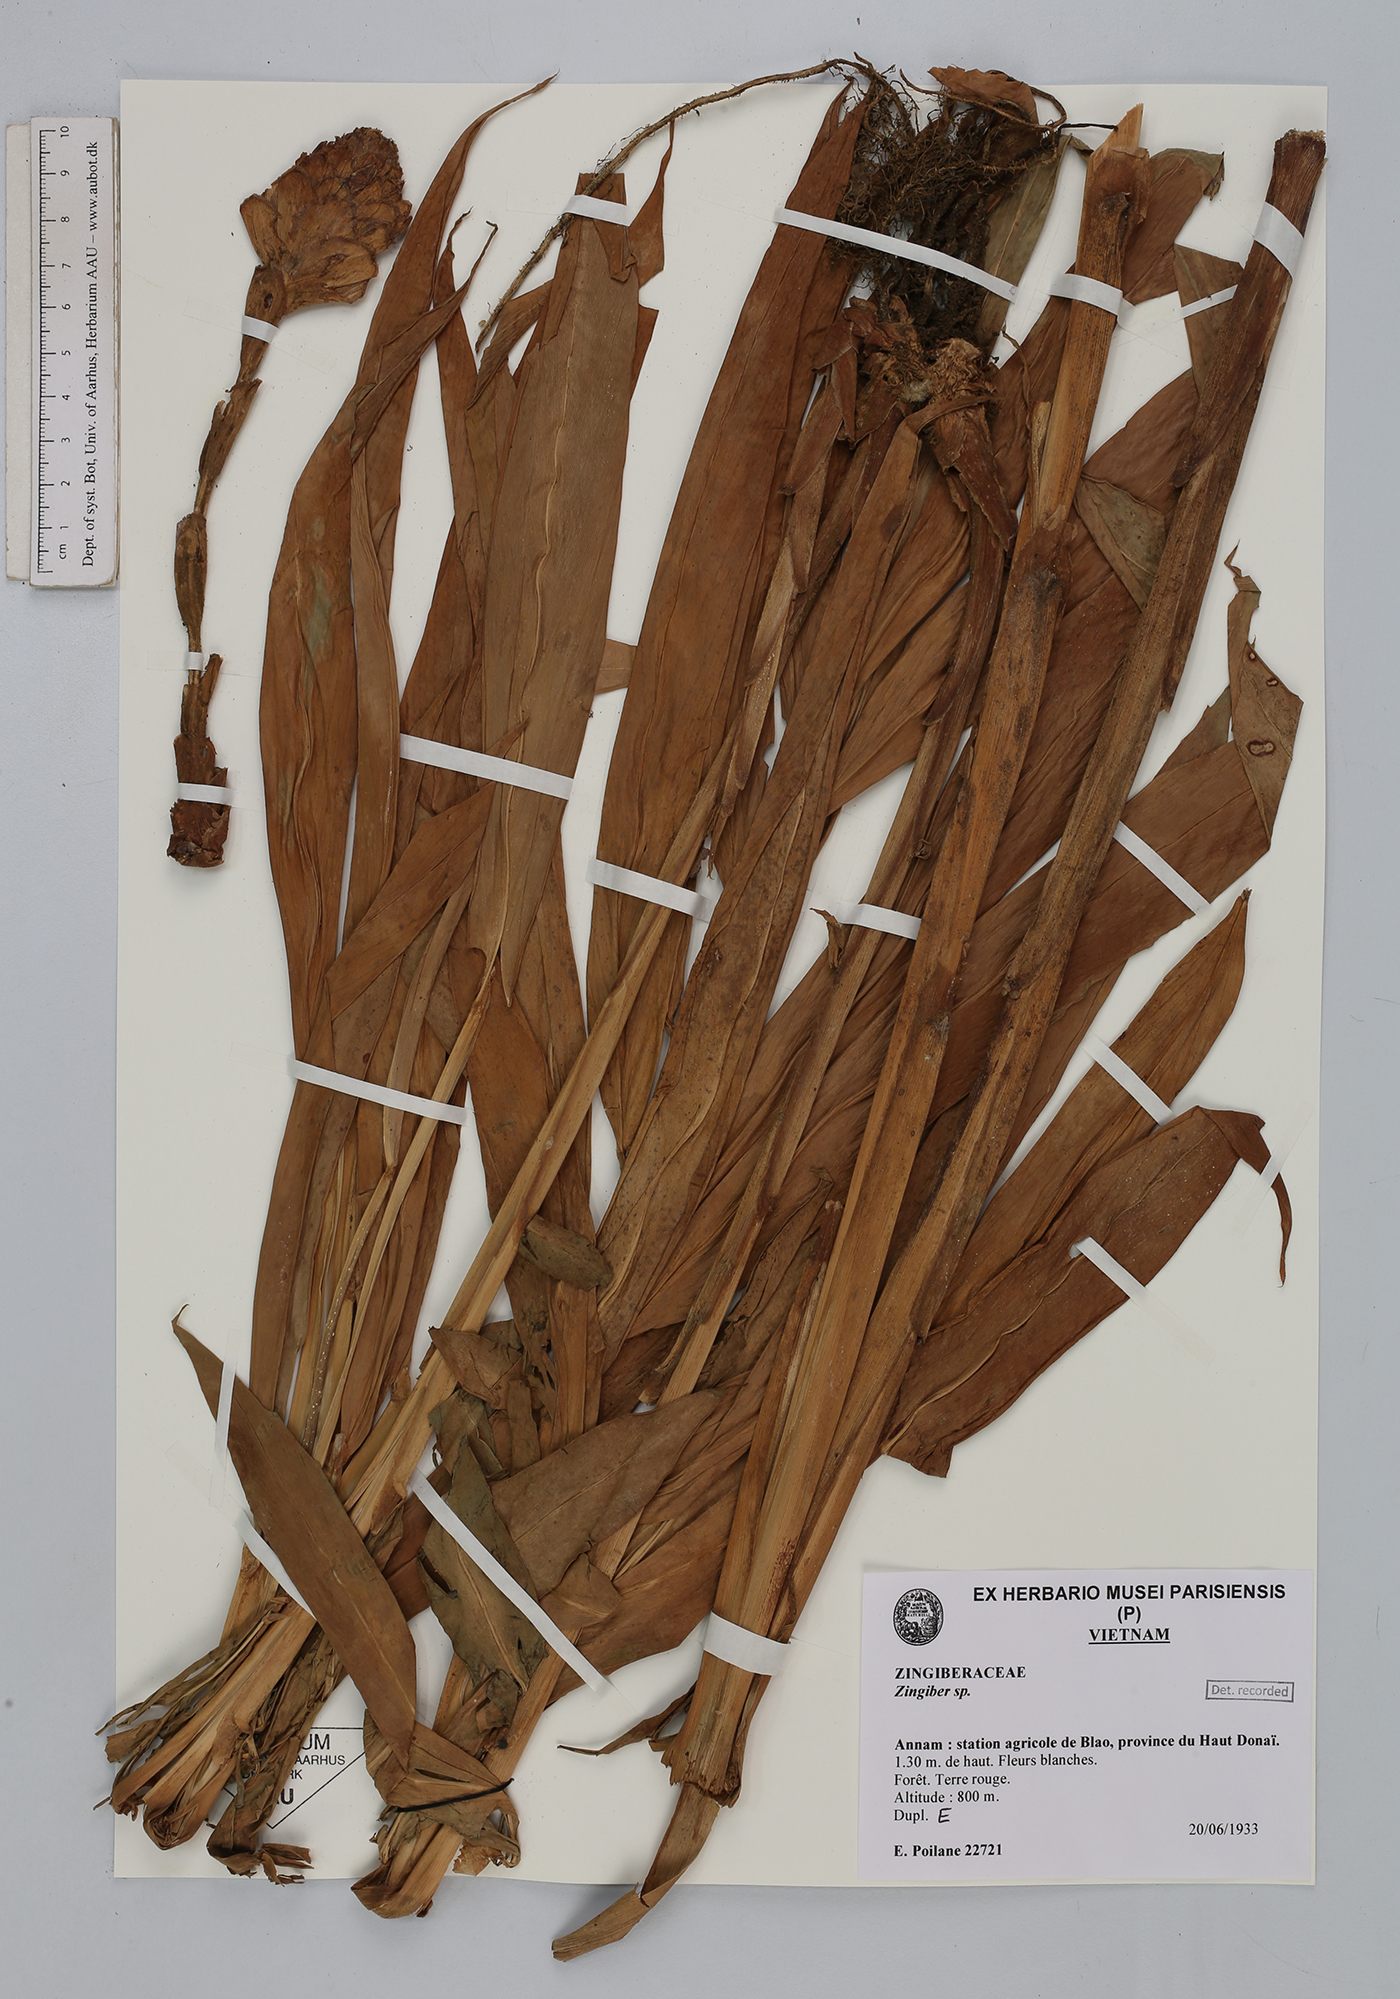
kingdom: Plantae
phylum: Tracheophyta
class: Liliopsida
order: Zingiberales
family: Zingiberaceae
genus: Zingiber
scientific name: Zingiber
